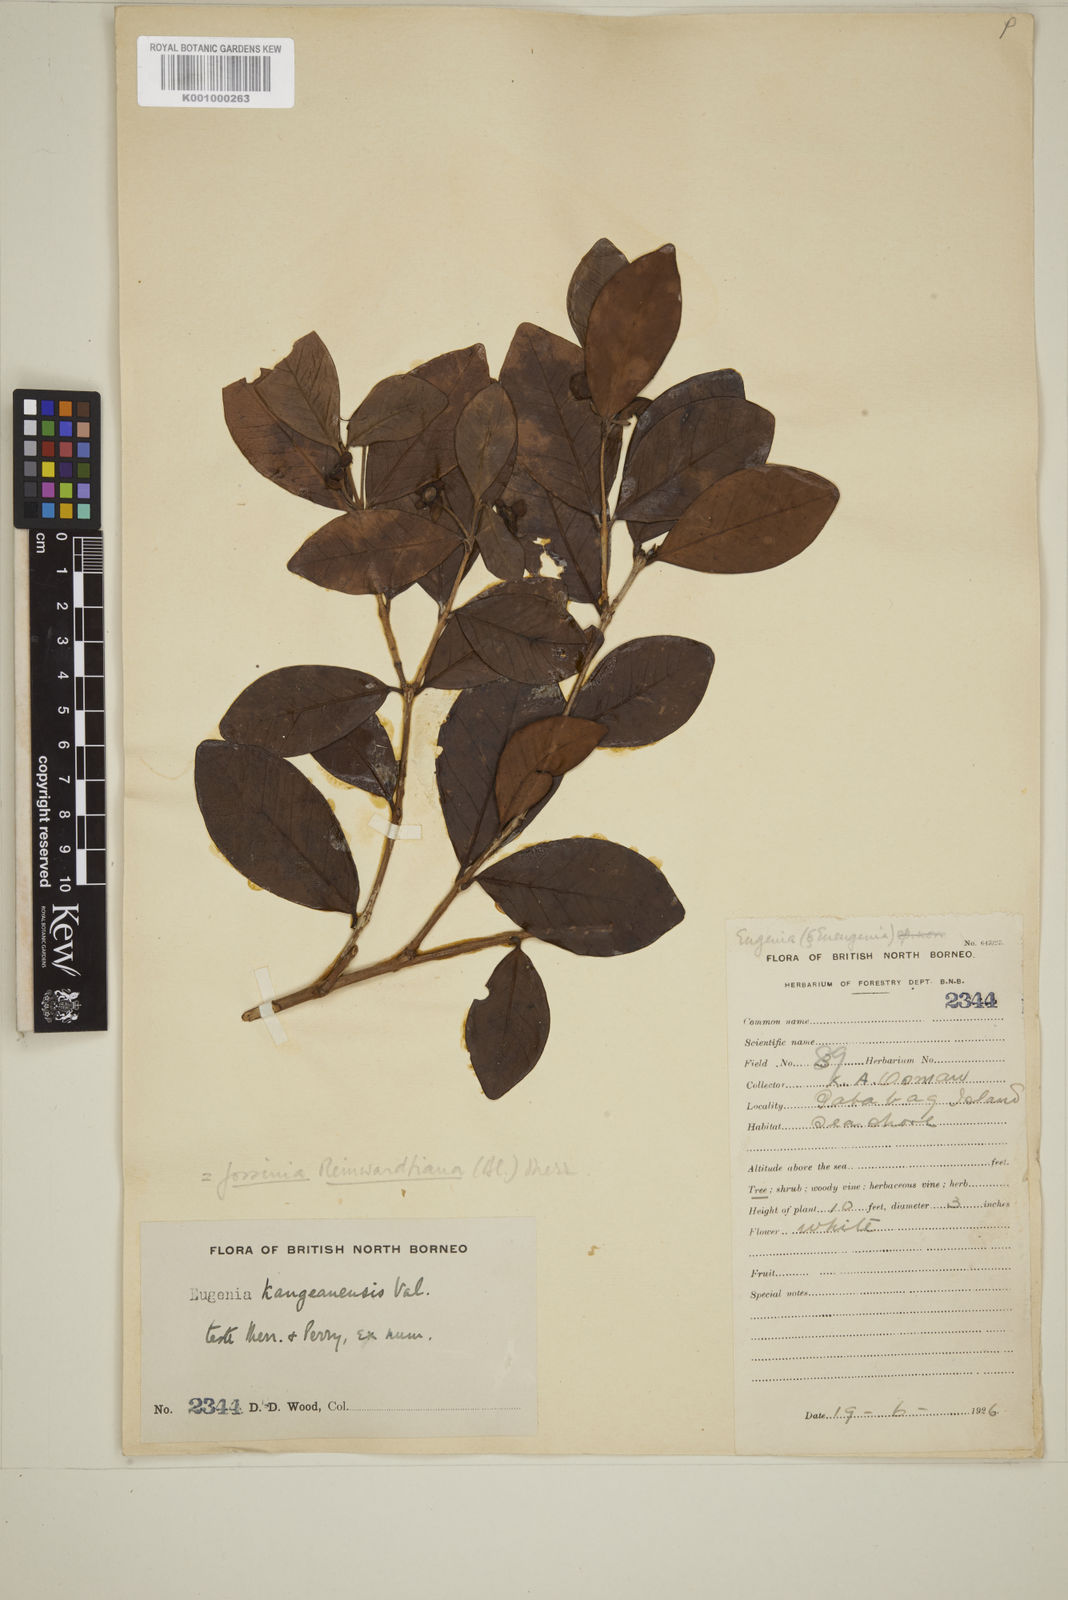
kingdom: Plantae
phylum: Tracheophyta
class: Magnoliopsida
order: Myrtales
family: Myrtaceae
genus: Eugenia
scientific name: Eugenia reinwardtiana
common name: Cedar bay-cherry
